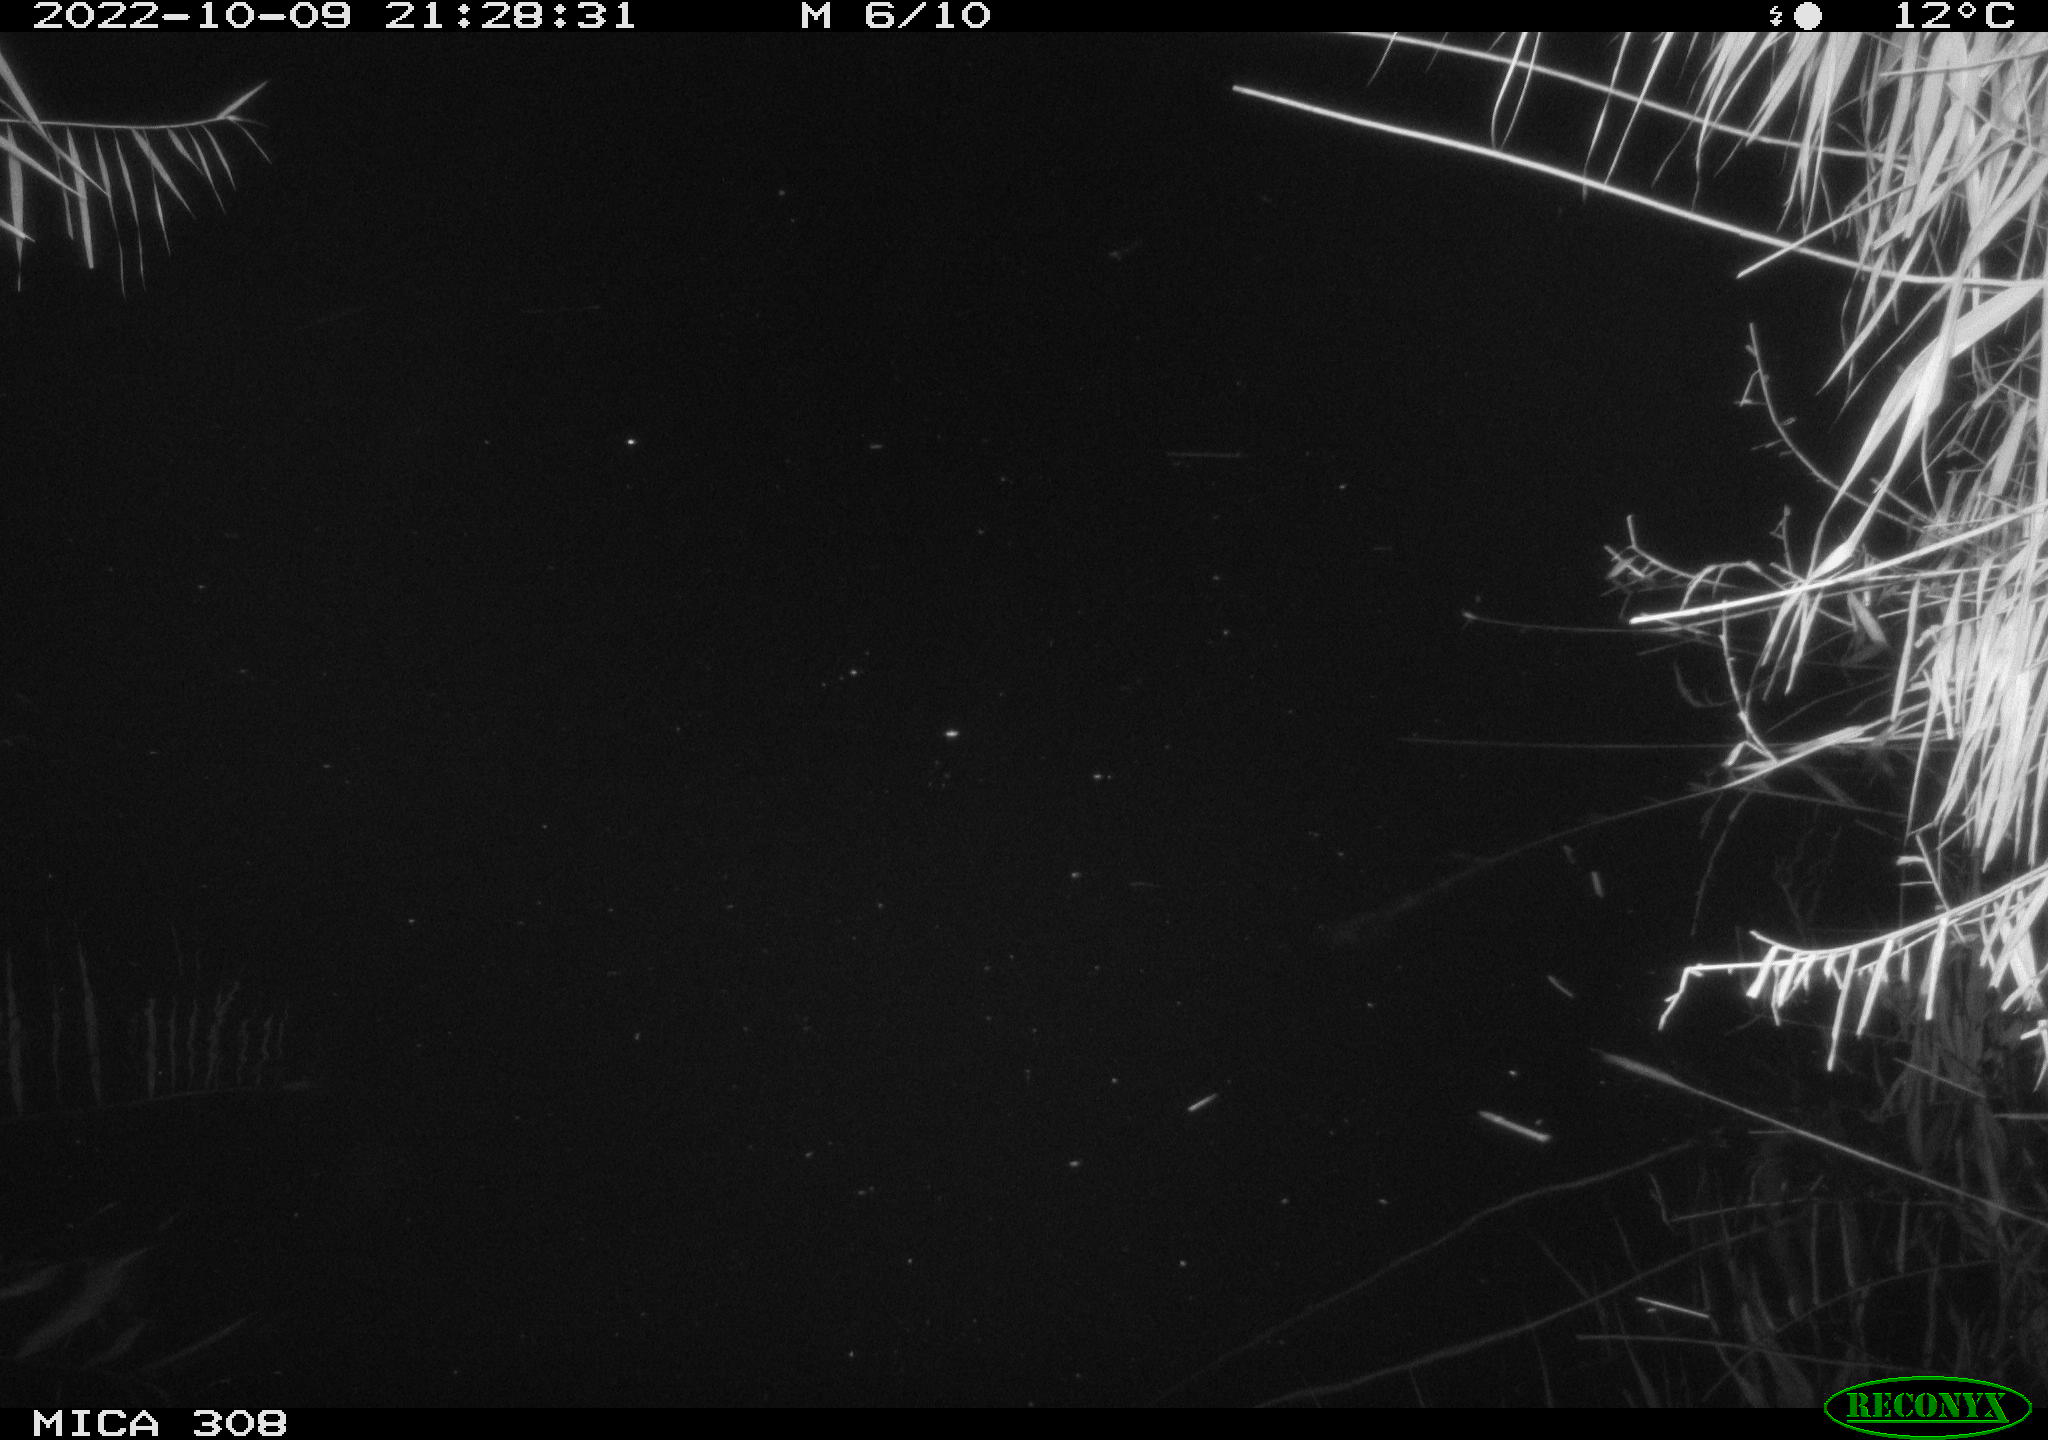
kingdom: Animalia
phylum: Chordata
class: Mammalia
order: Rodentia
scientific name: Rodentia
